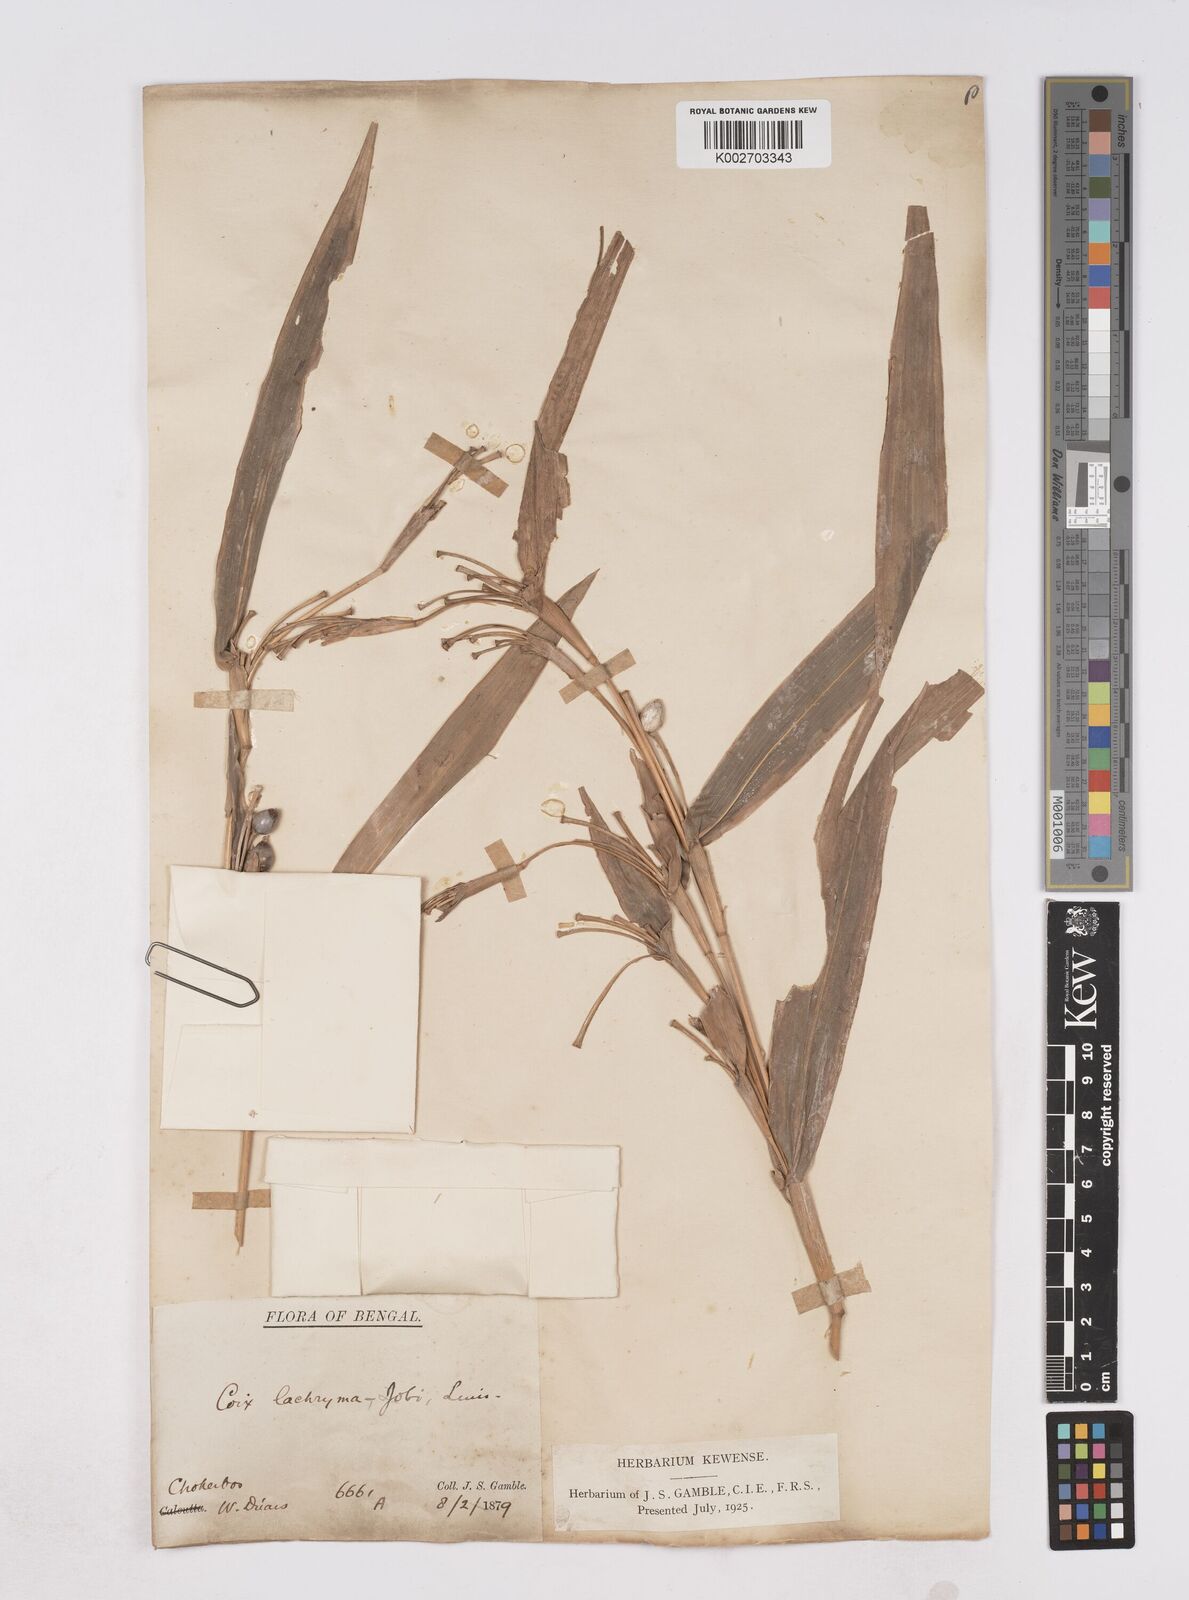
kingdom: Plantae
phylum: Tracheophyta
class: Liliopsida
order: Poales
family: Poaceae
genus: Coix
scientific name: Coix lacryma-jobi
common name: Job's tears
